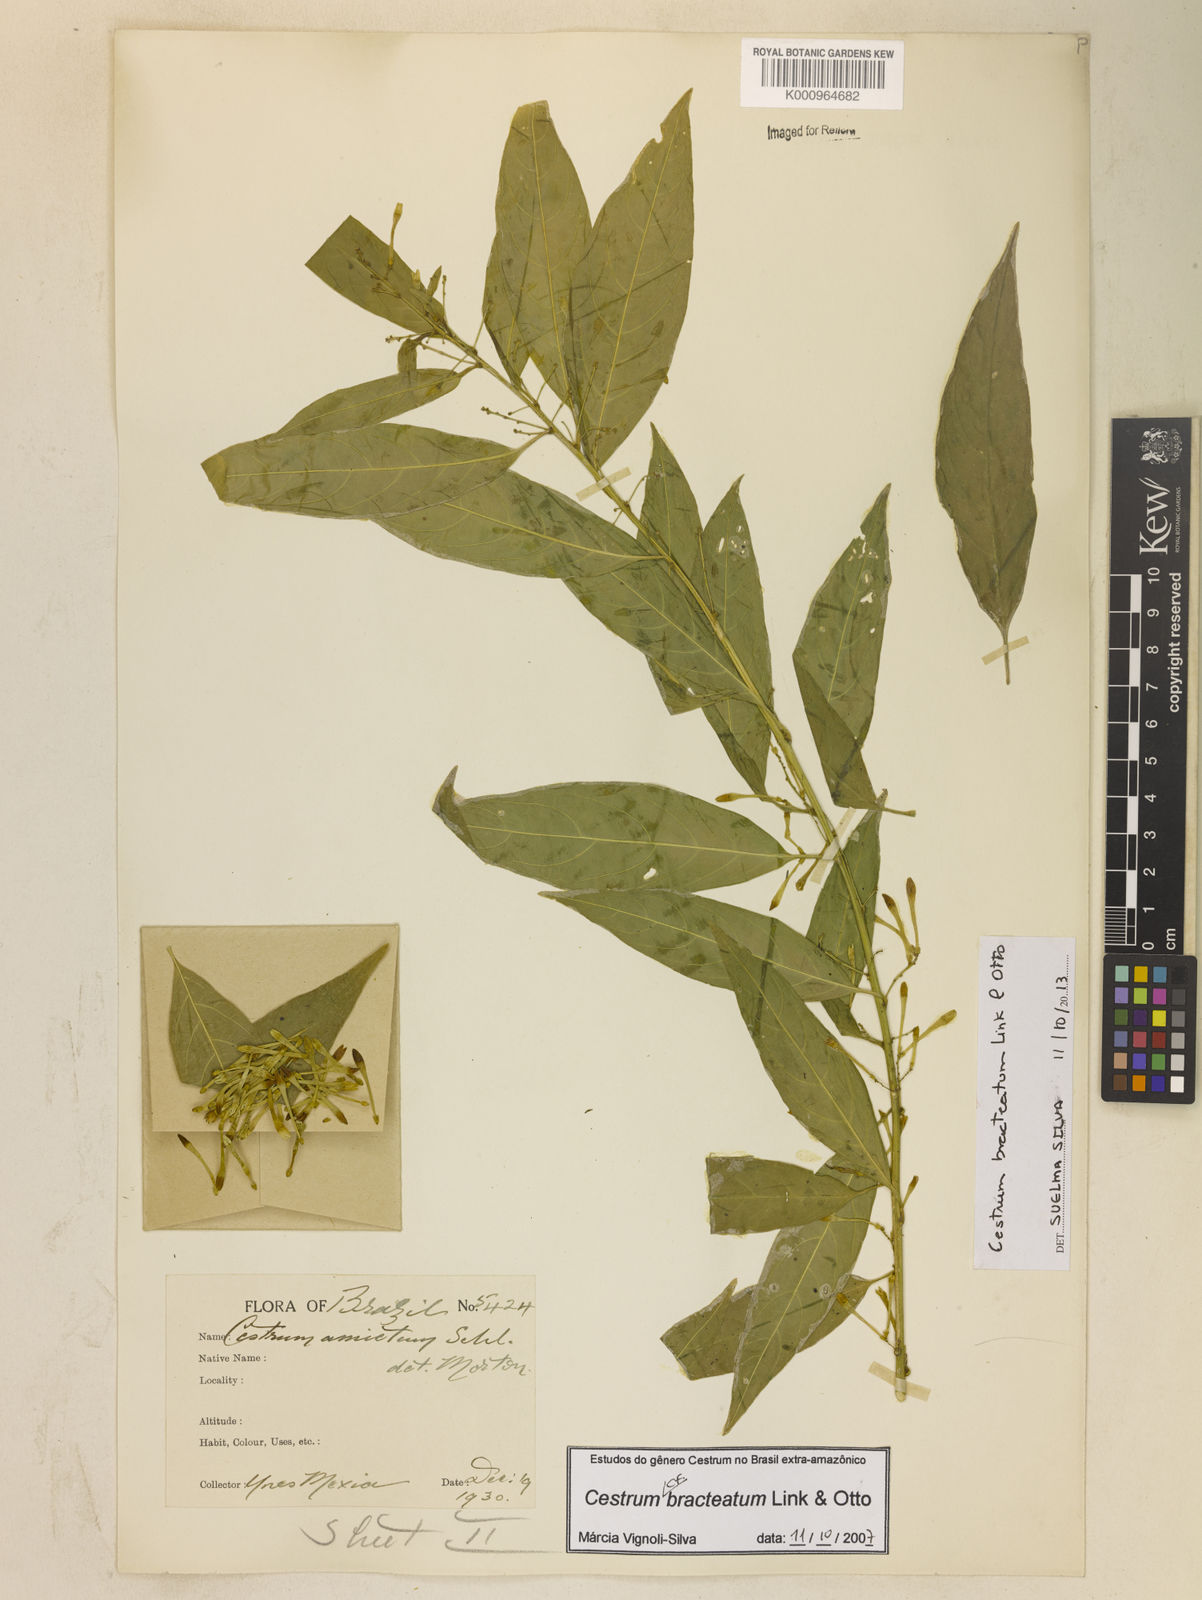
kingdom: Plantae
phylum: Tracheophyta
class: Magnoliopsida
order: Solanales
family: Solanaceae
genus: Cestrum
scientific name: Cestrum bracteatum
